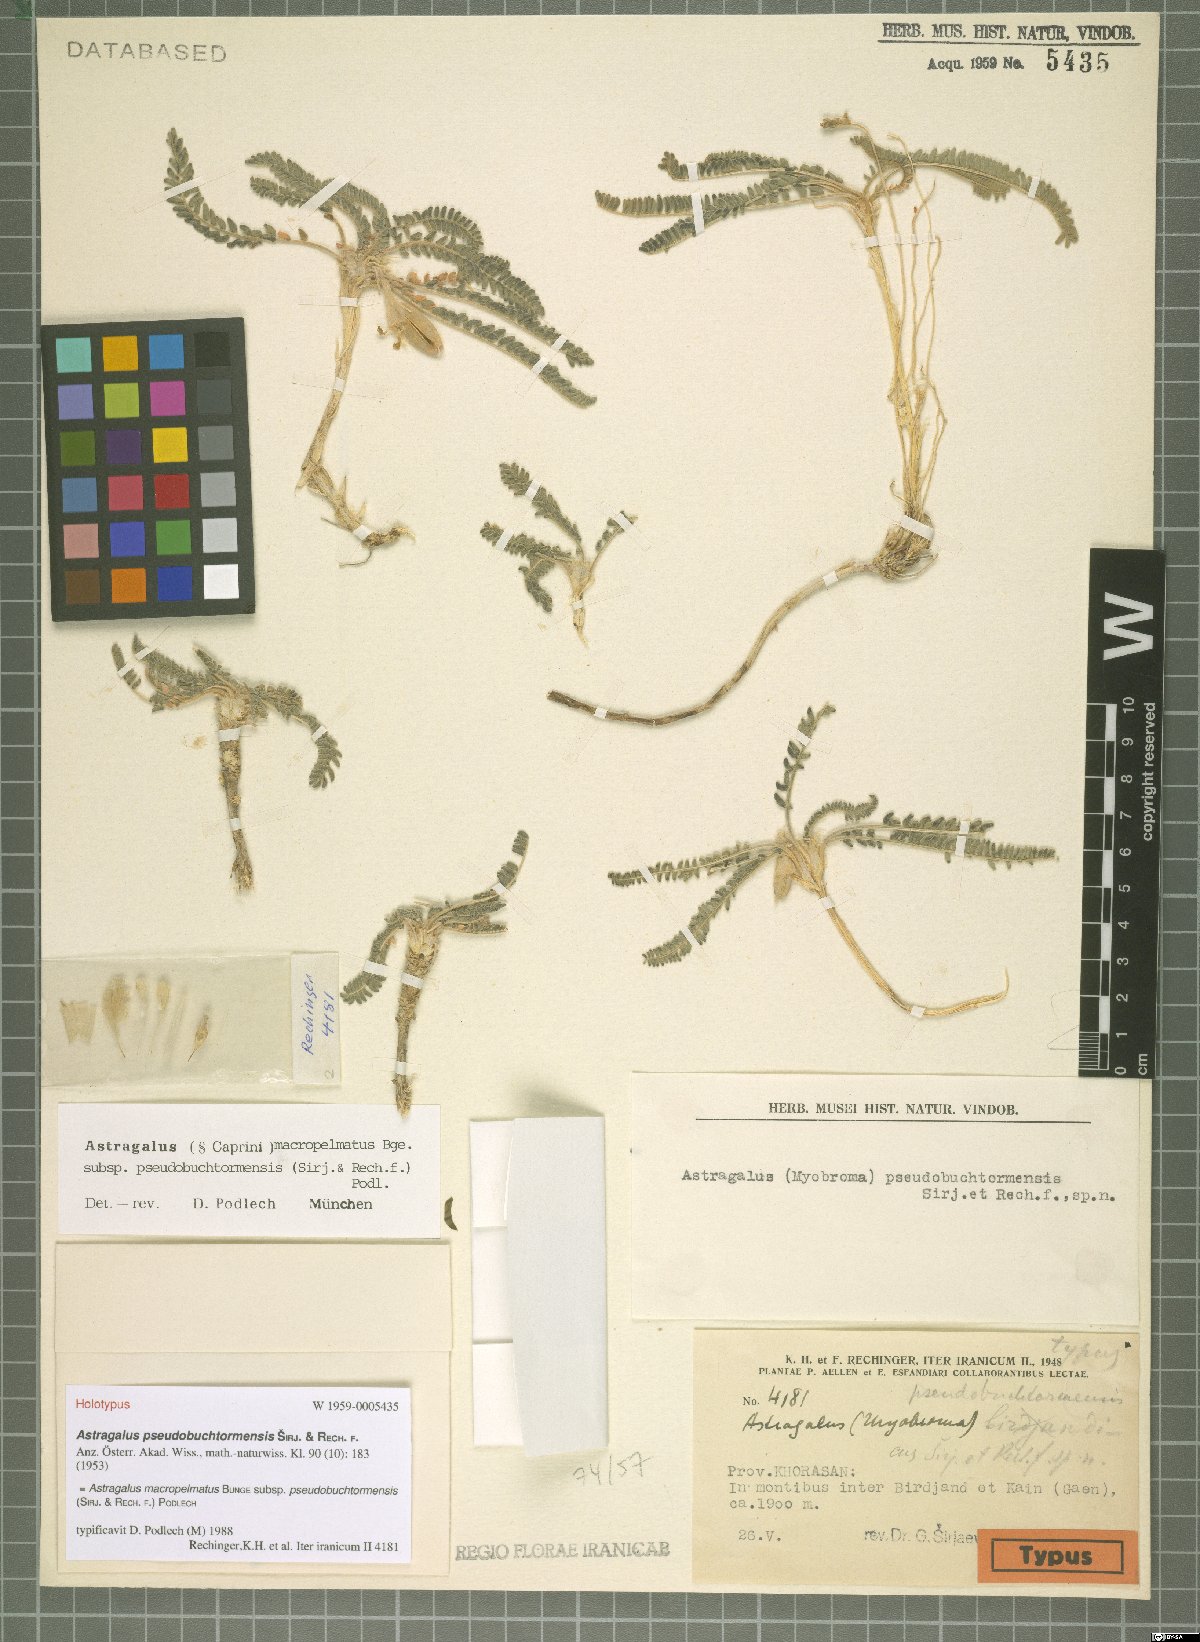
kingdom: Plantae
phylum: Tracheophyta
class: Magnoliopsida
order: Fabales
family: Fabaceae
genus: Astragalus
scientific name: Astragalus macropelmatus
